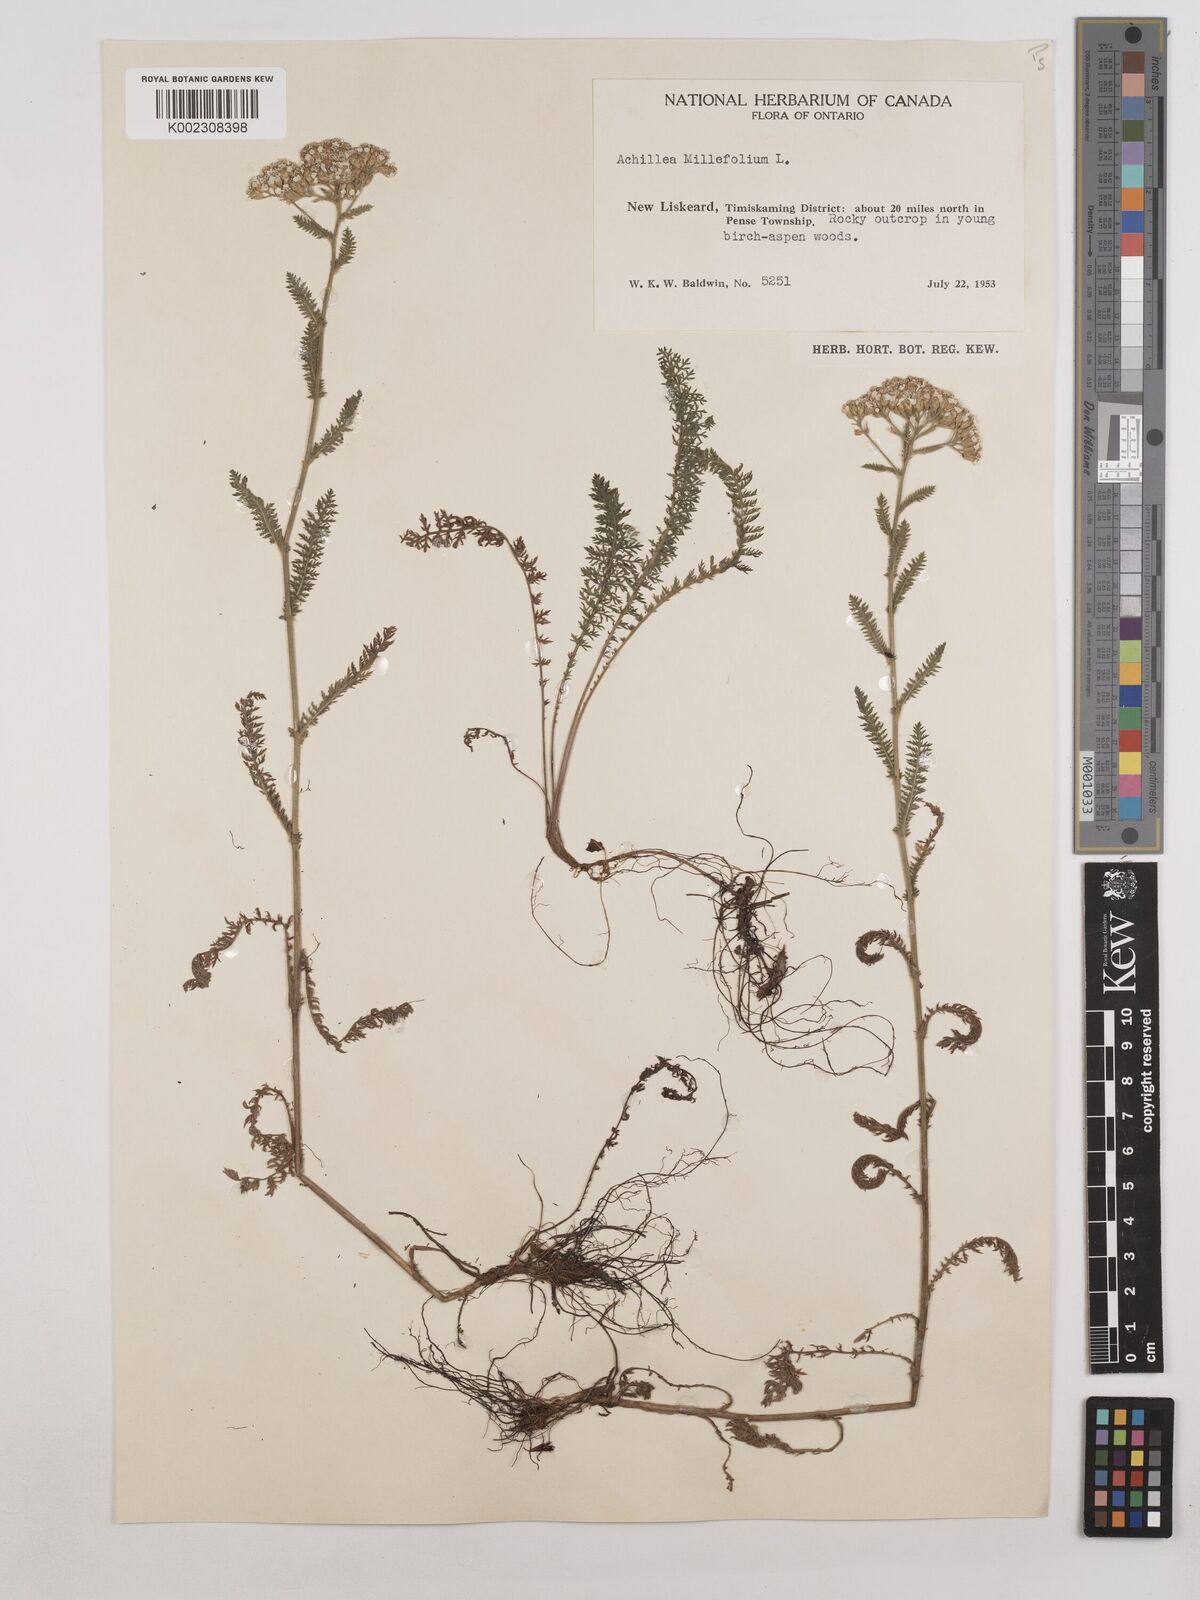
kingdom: Plantae
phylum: Tracheophyta
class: Magnoliopsida
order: Asterales
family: Asteraceae
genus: Achillea
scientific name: Achillea millefolium
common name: Yarrow
